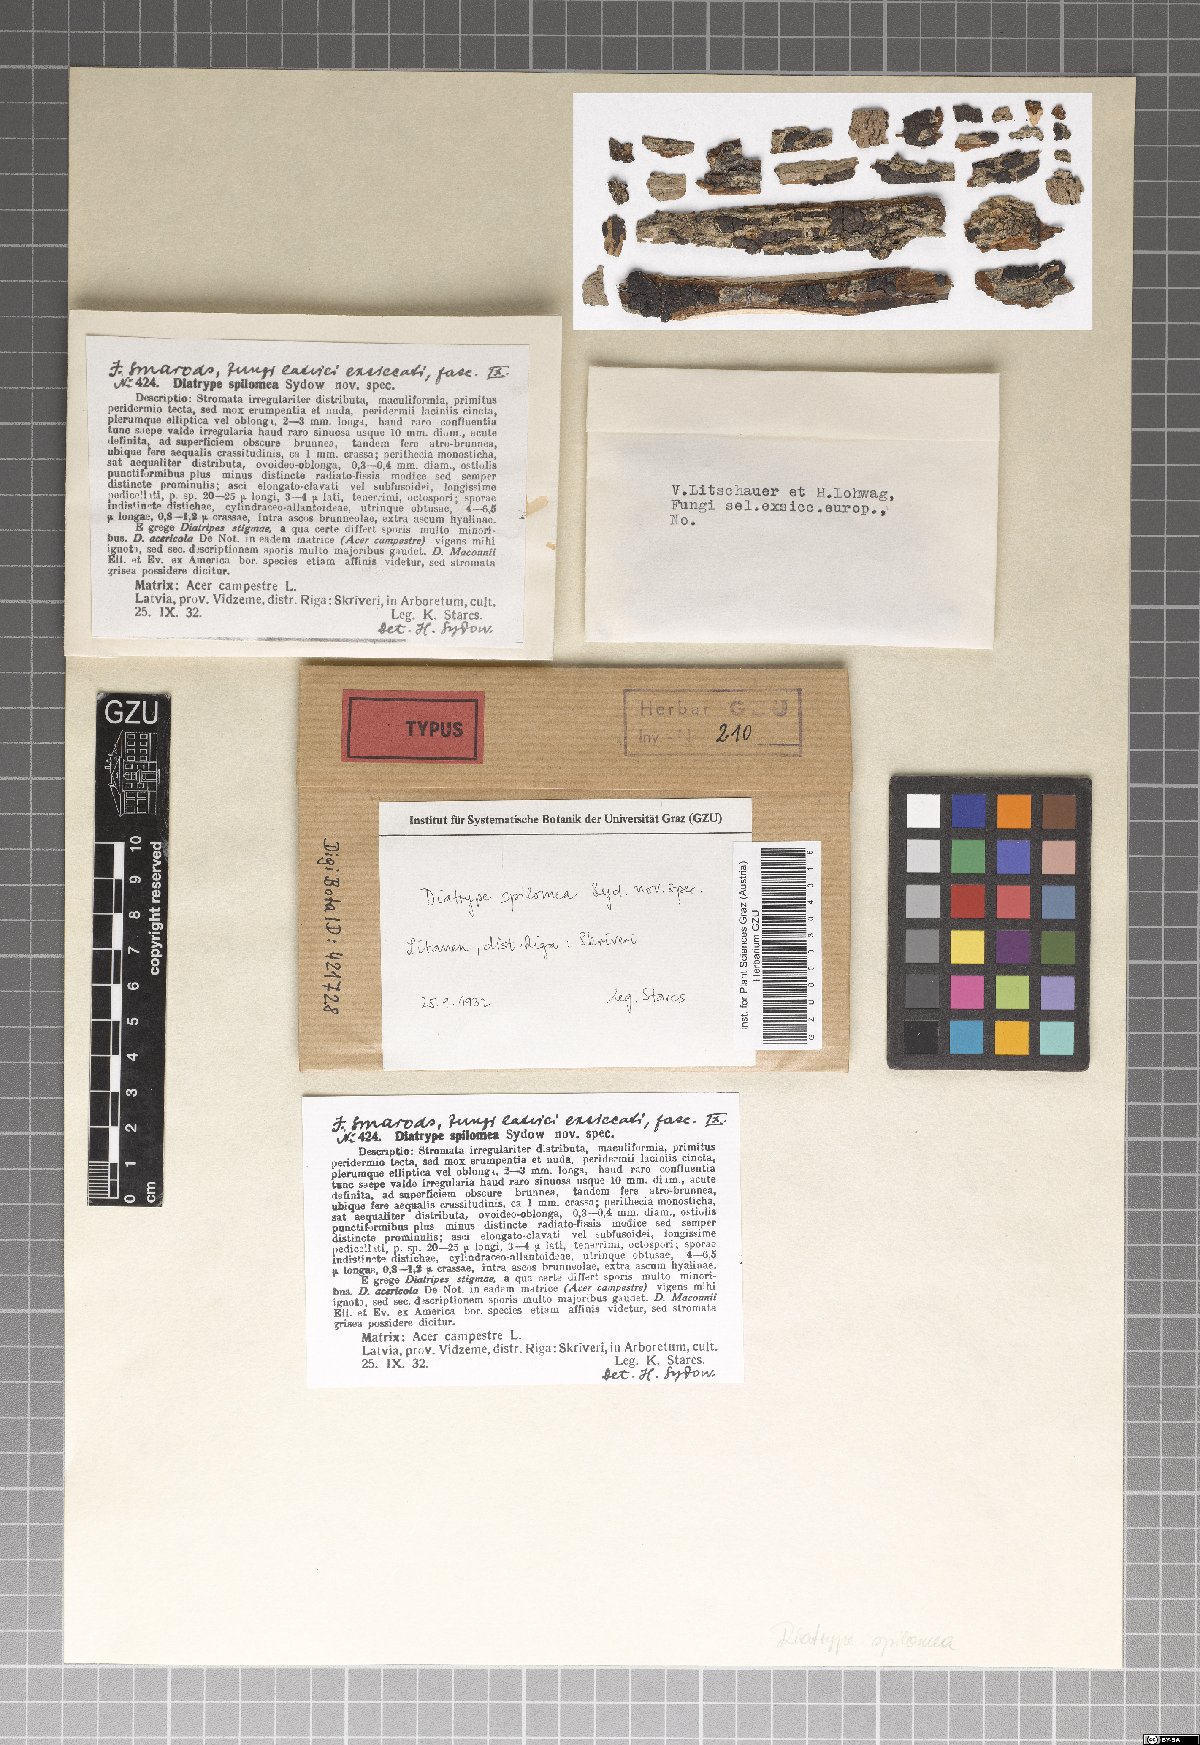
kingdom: Fungi
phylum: Ascomycota
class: Sordariomycetes
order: Xylariales
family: Diatrypaceae
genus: Diatrype
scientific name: Diatrype spilomea
